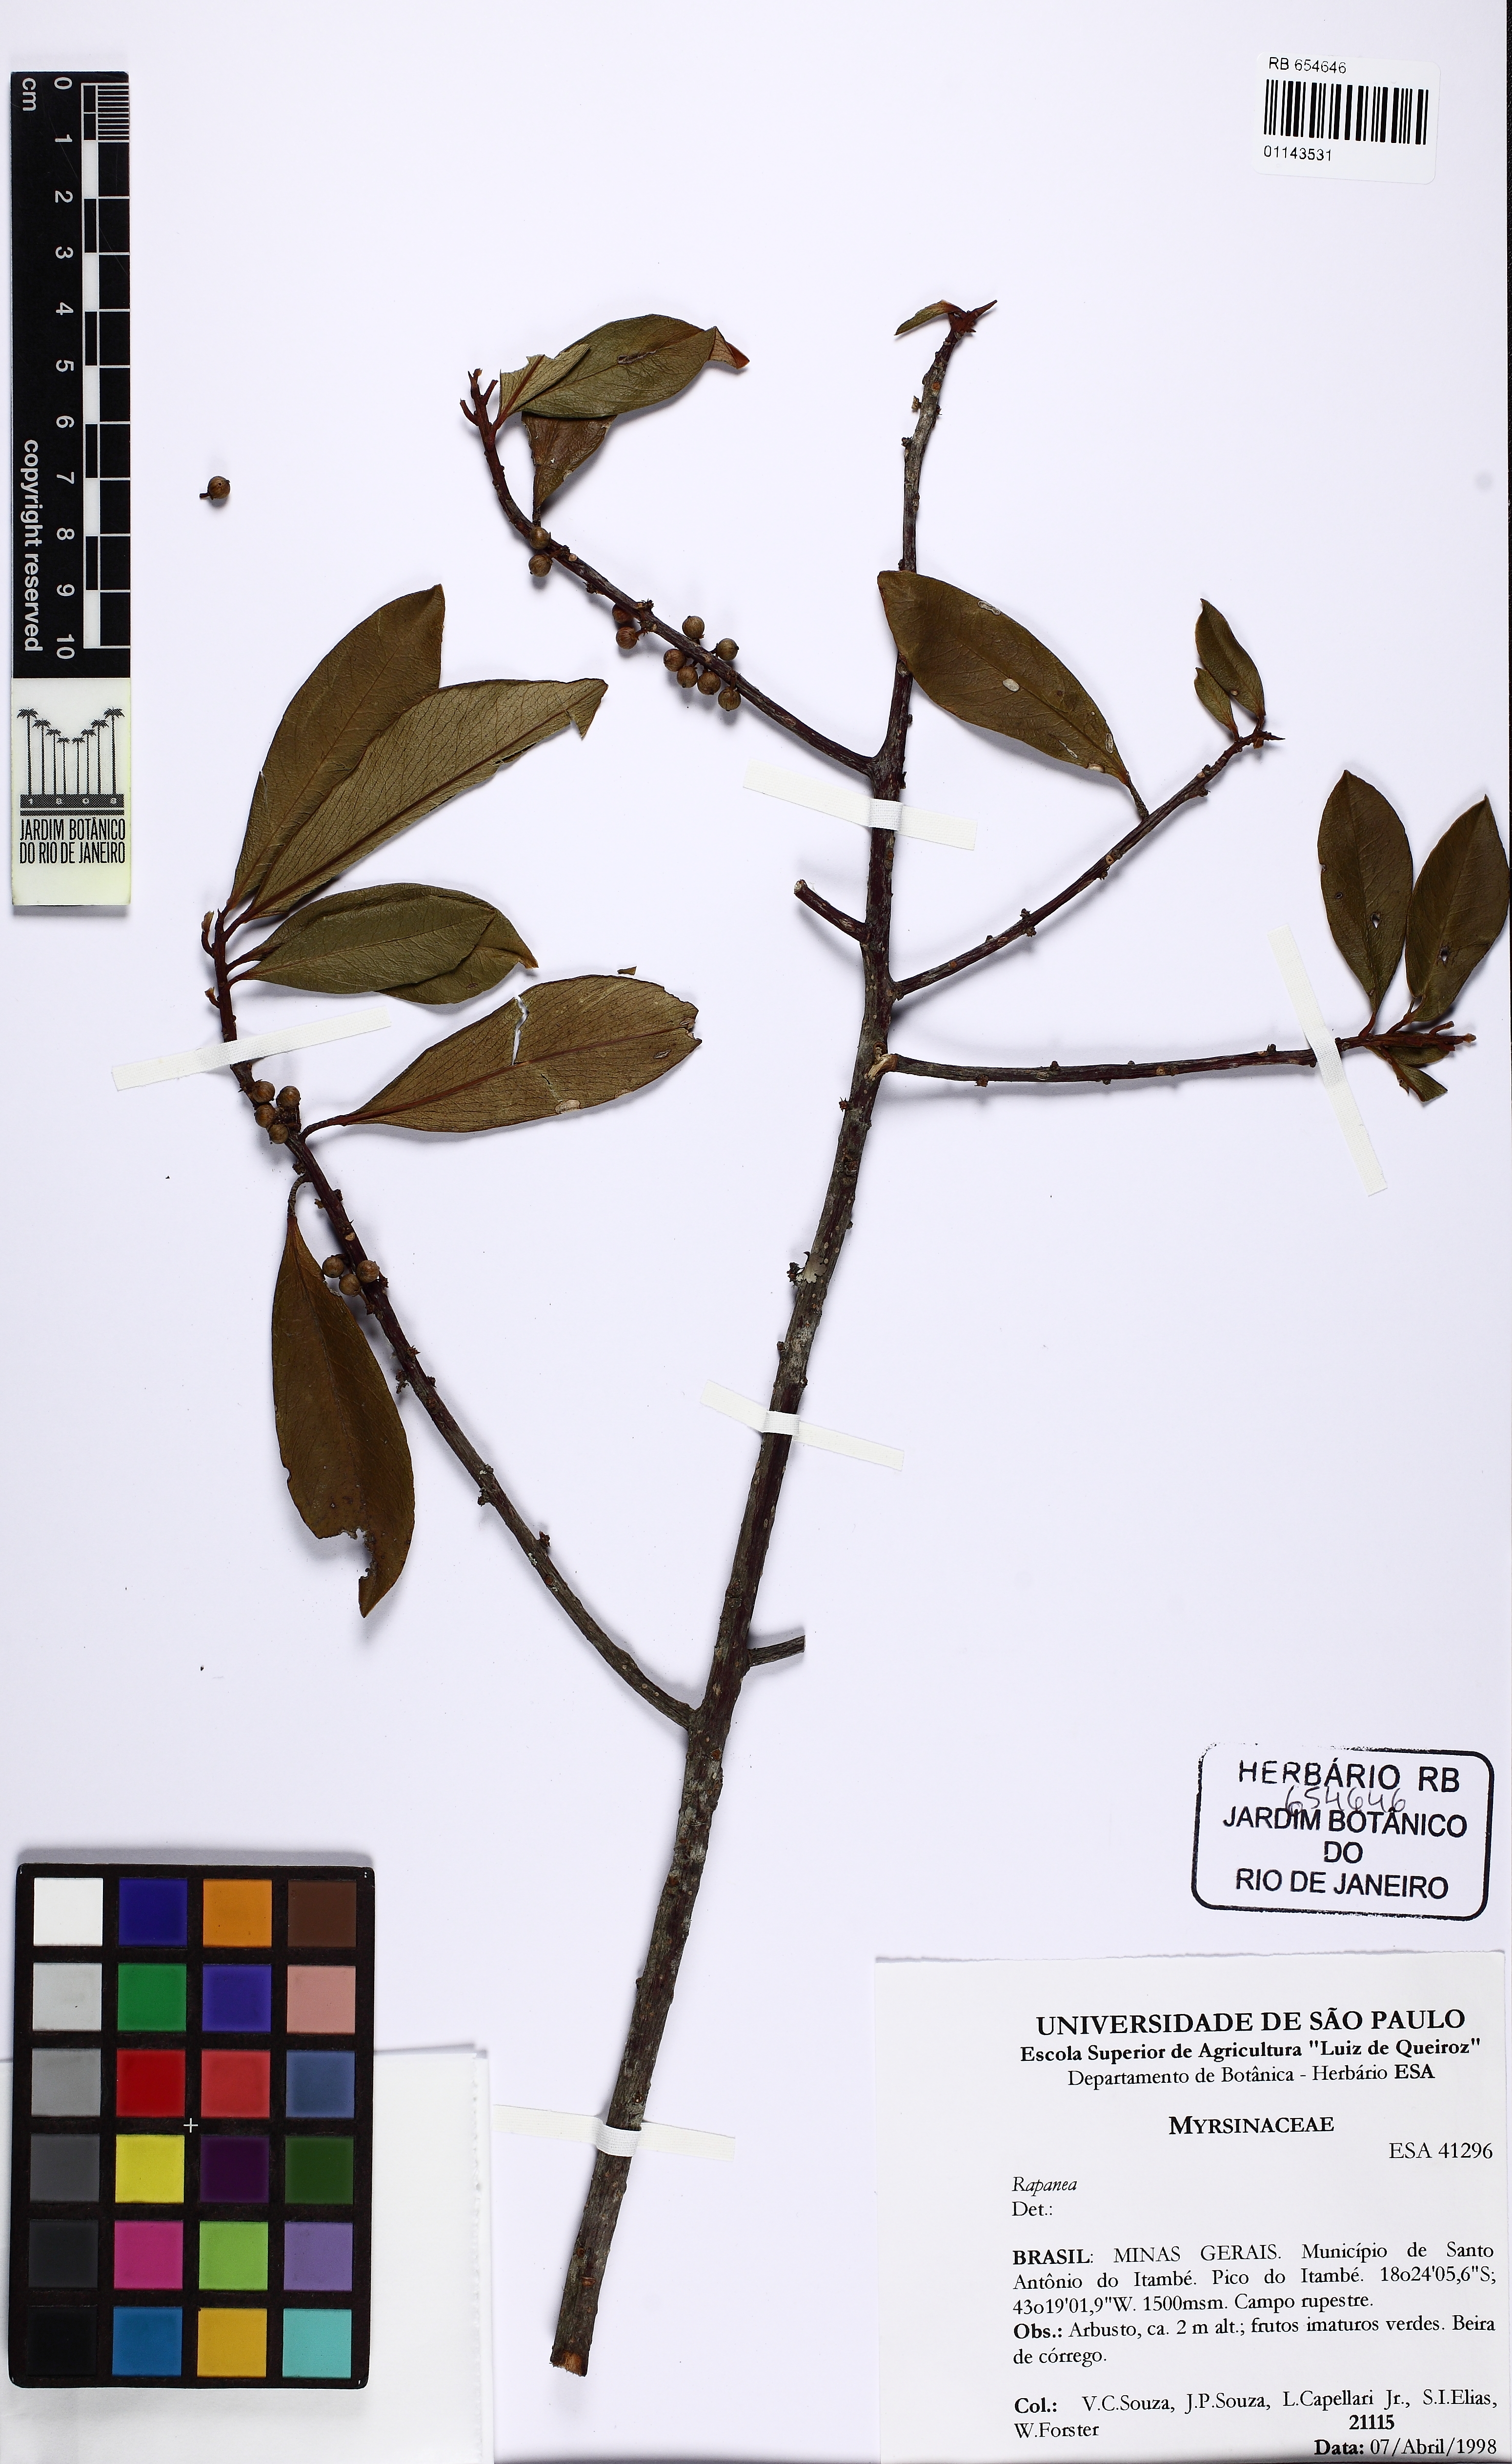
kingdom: Plantae
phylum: Tracheophyta
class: Magnoliopsida
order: Ericales
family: Primulaceae
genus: Myrsine
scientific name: Myrsine squarrosa
